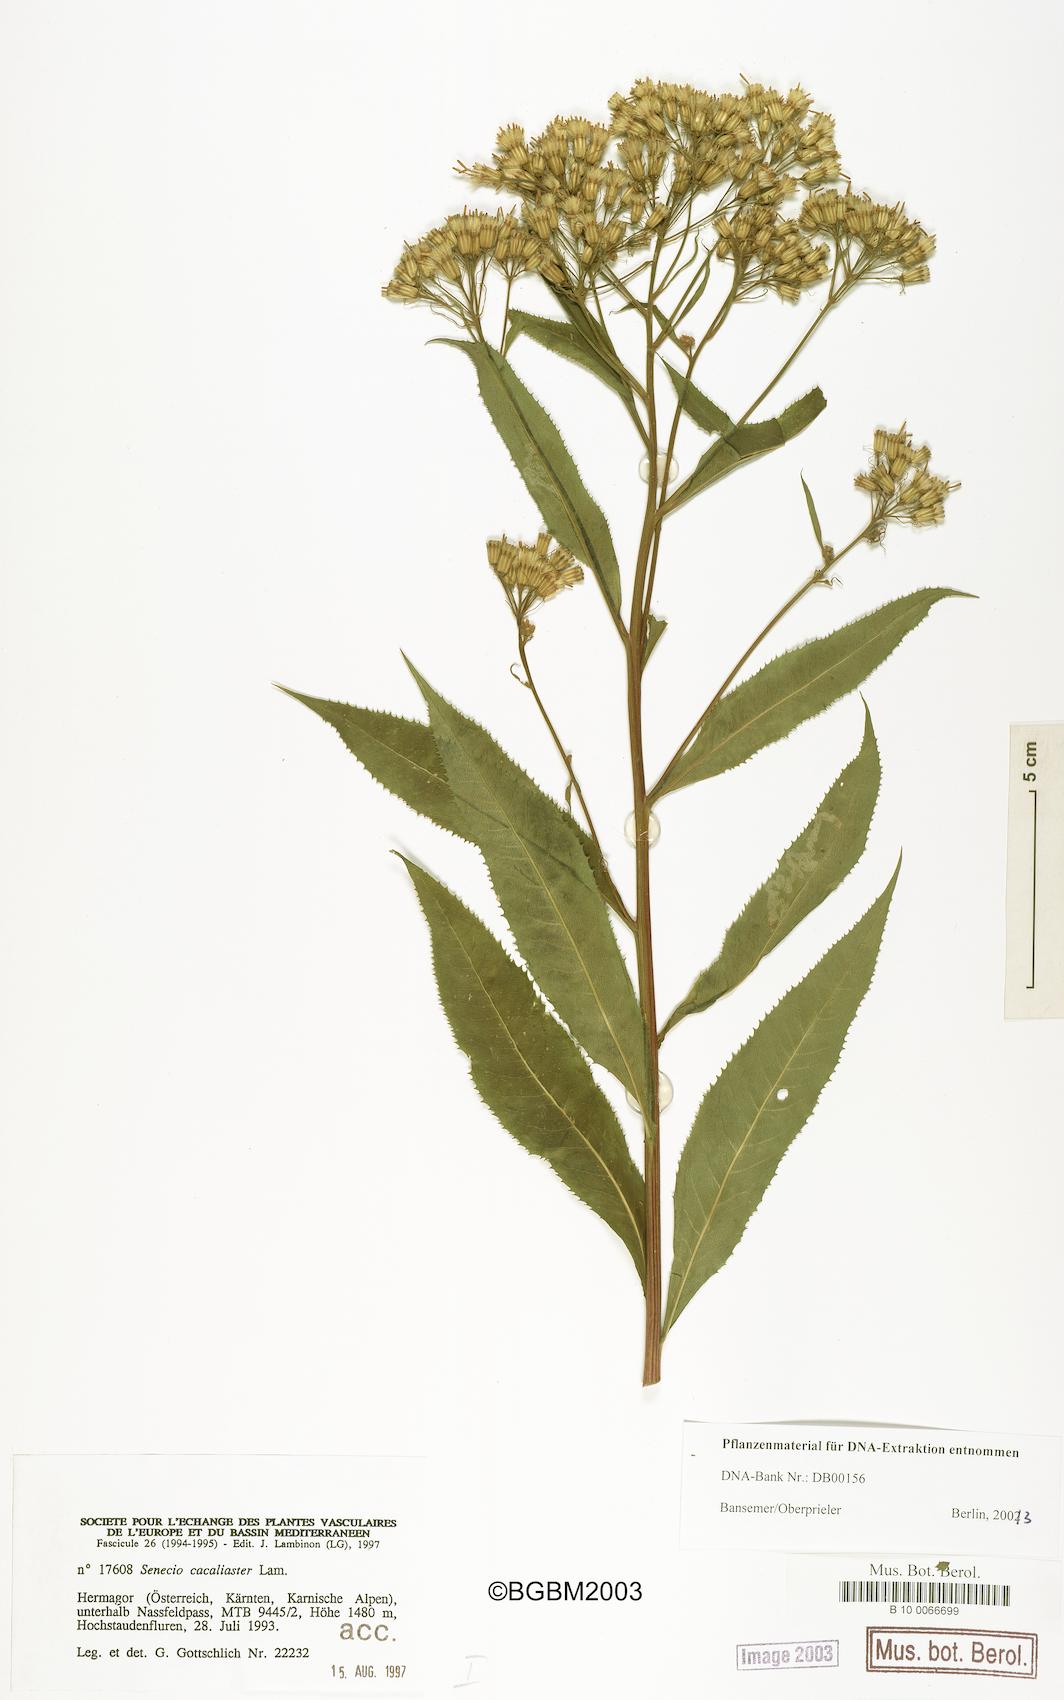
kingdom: Plantae
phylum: Tracheophyta
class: Magnoliopsida
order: Asterales
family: Asteraceae
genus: Senecio
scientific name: Senecio cacaliaster
